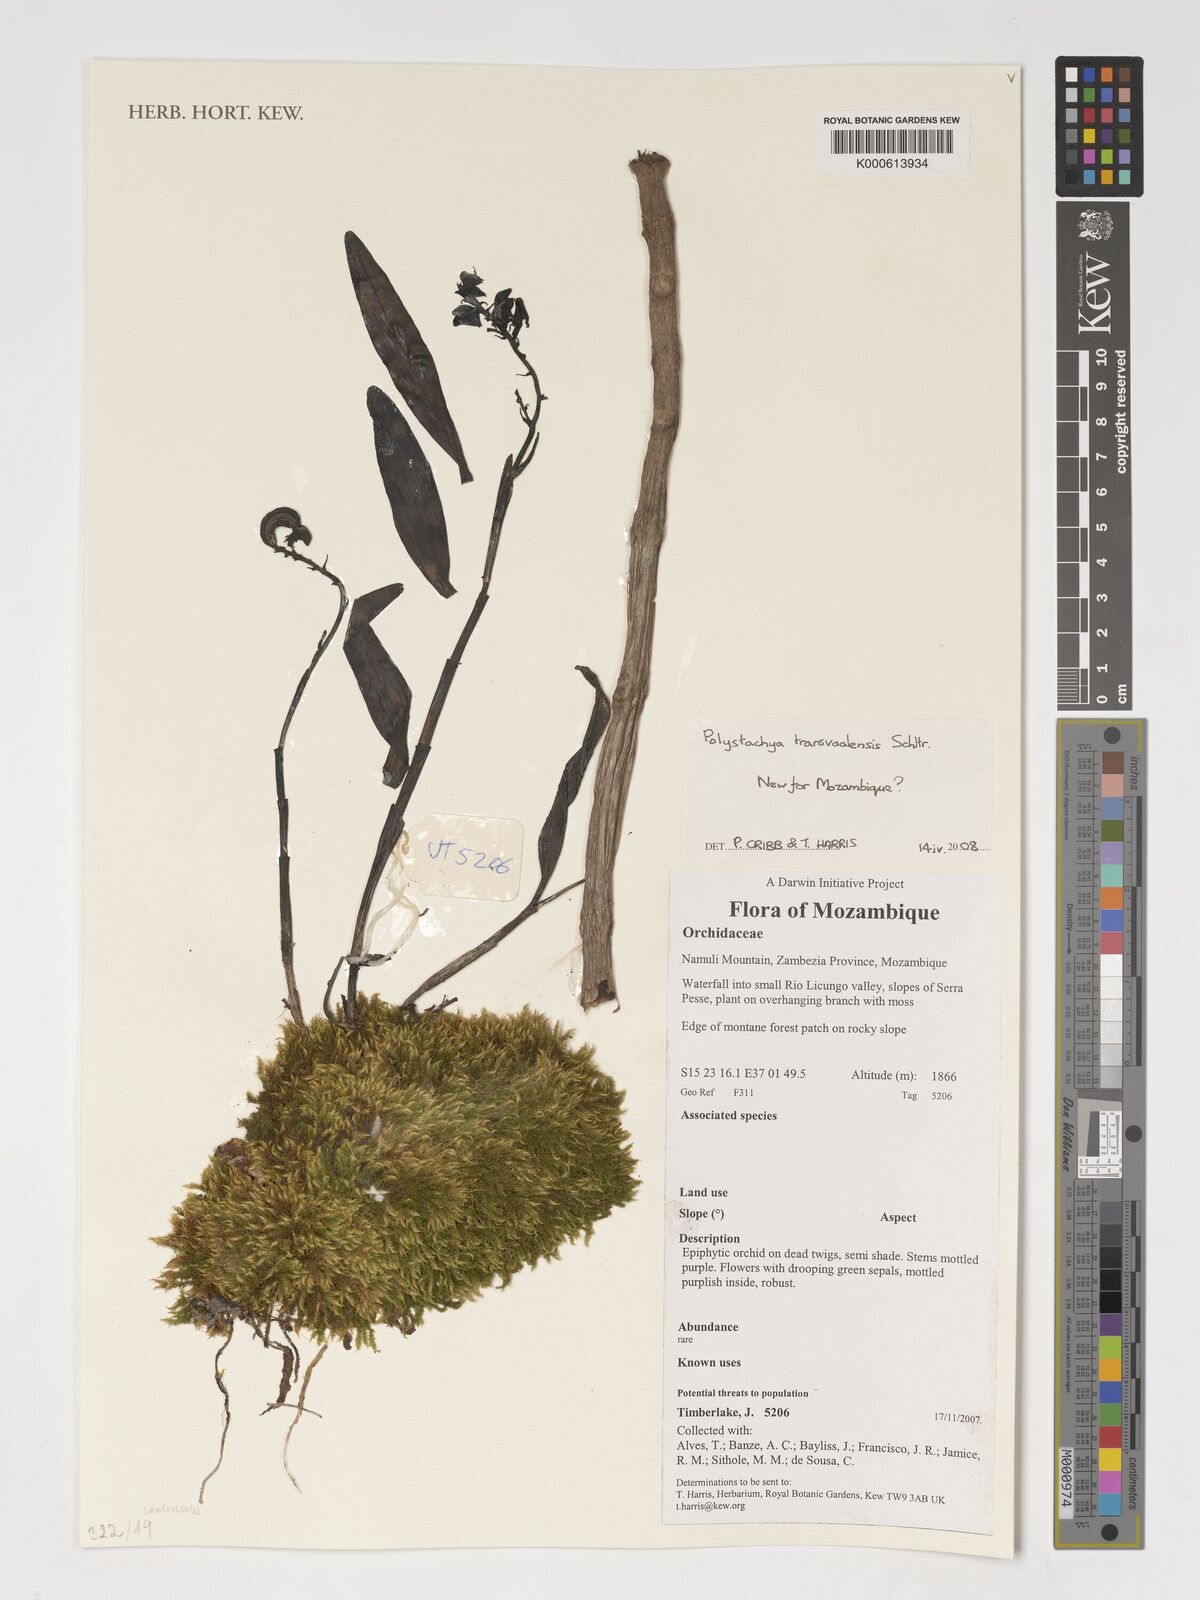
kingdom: Plantae
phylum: Tracheophyta
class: Liliopsida
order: Asparagales
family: Orchidaceae
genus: Polystachya
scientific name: Polystachya transvaalensis
